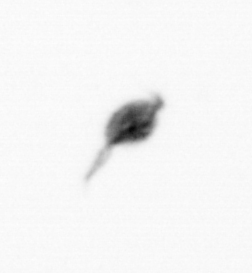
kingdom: Animalia
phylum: Arthropoda
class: Copepoda
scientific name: Copepoda
